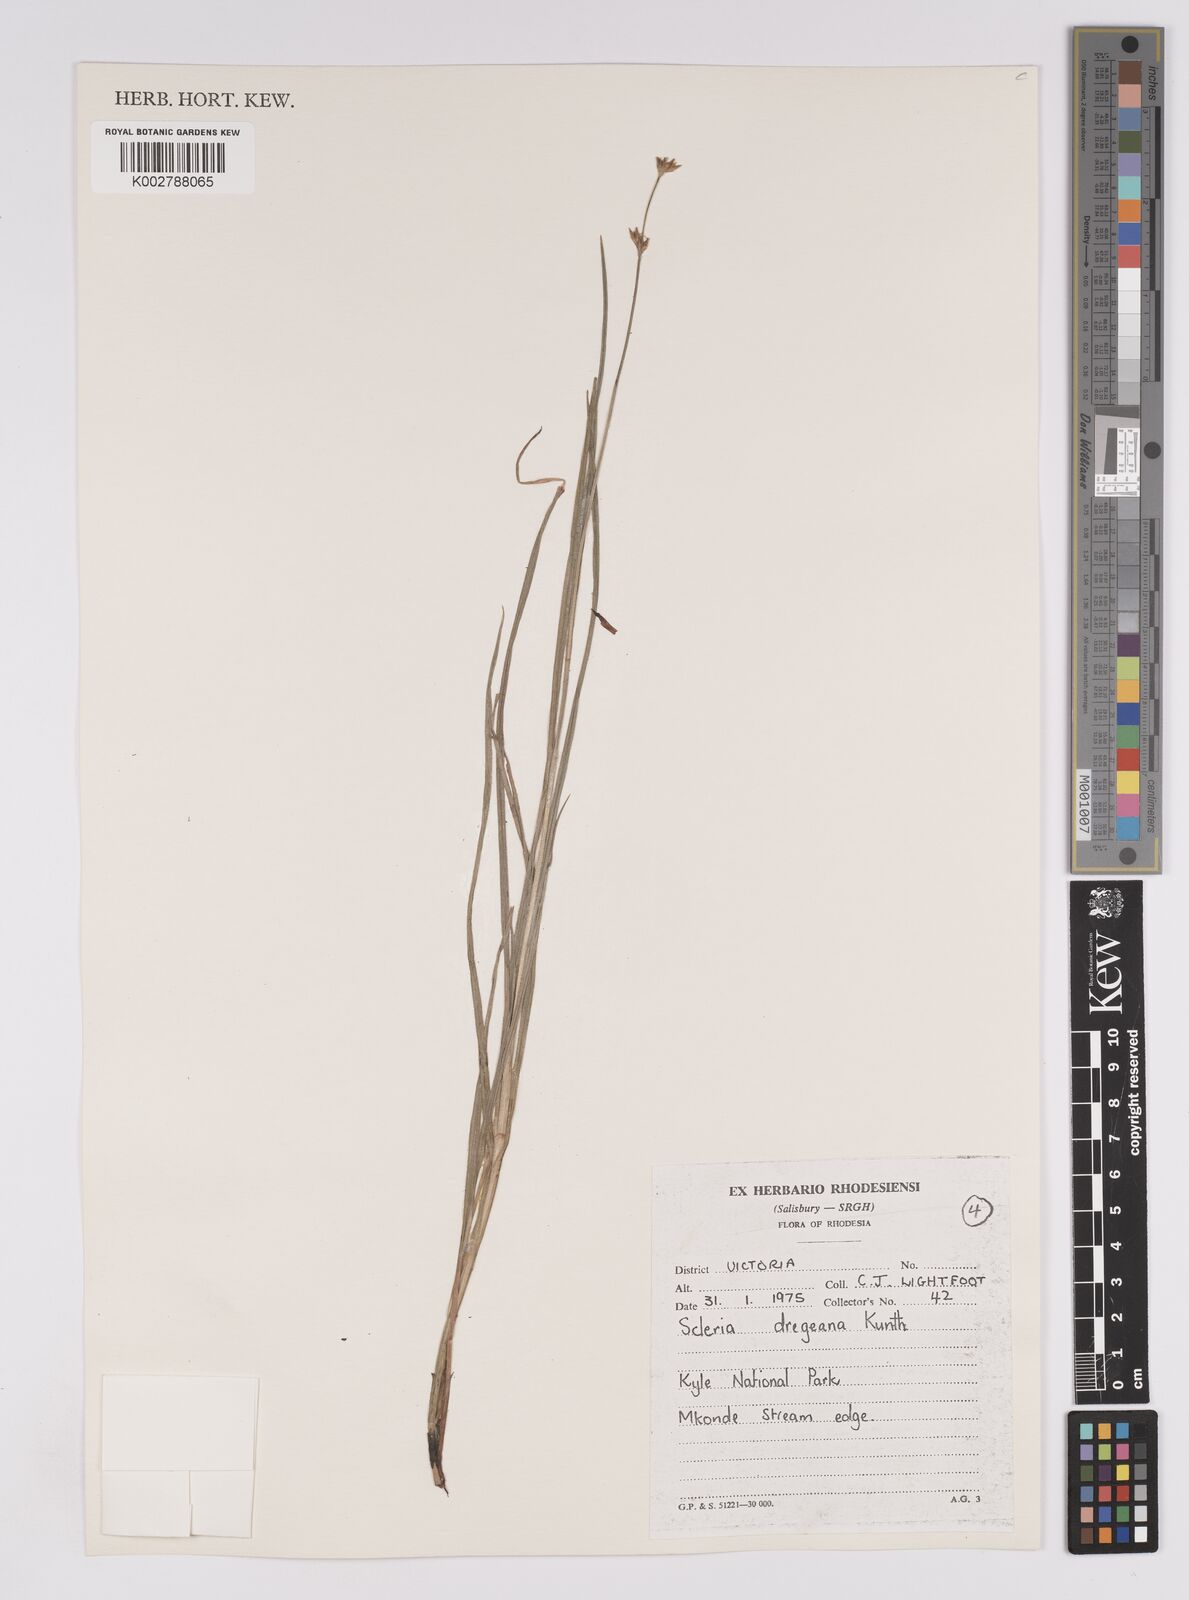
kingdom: Plantae
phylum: Tracheophyta
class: Liliopsida
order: Poales
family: Cyperaceae
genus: Scleria
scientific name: Scleria dregeana
